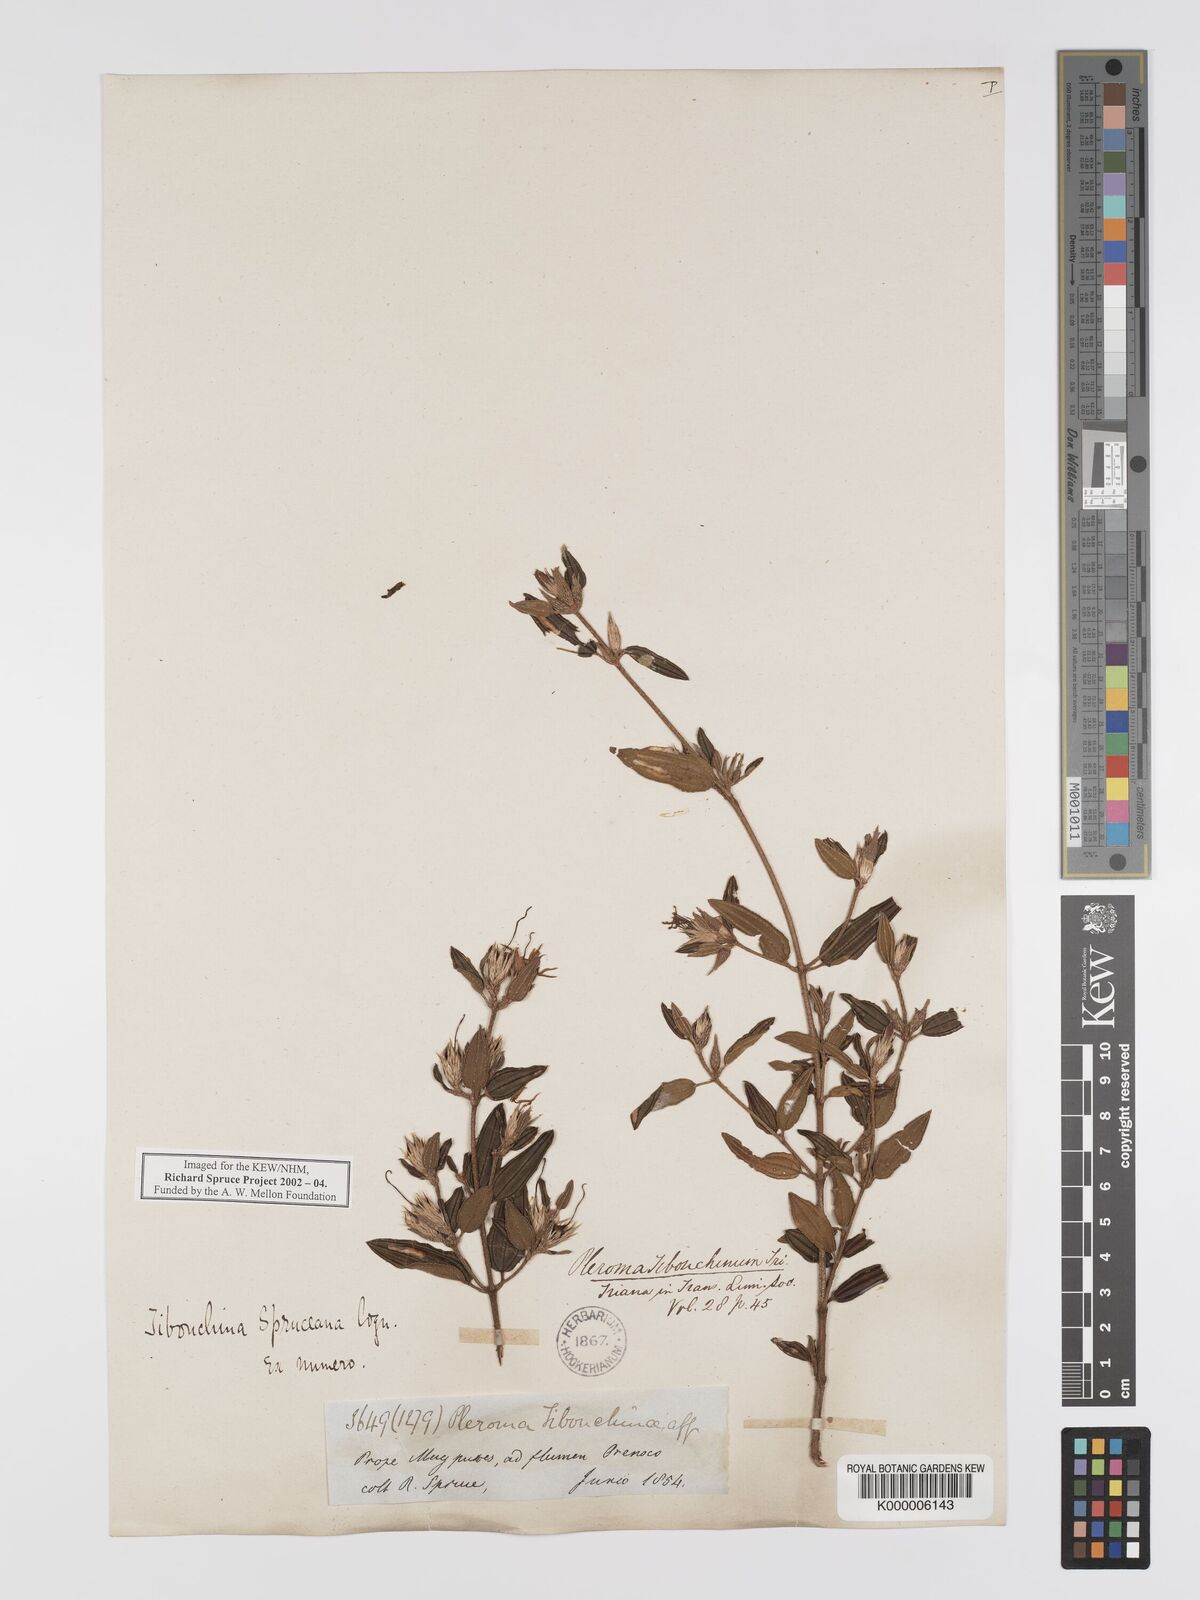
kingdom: Plantae
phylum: Tracheophyta
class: Magnoliopsida
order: Myrtales
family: Melastomataceae
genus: Tibouchina
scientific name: Tibouchina spruceana
